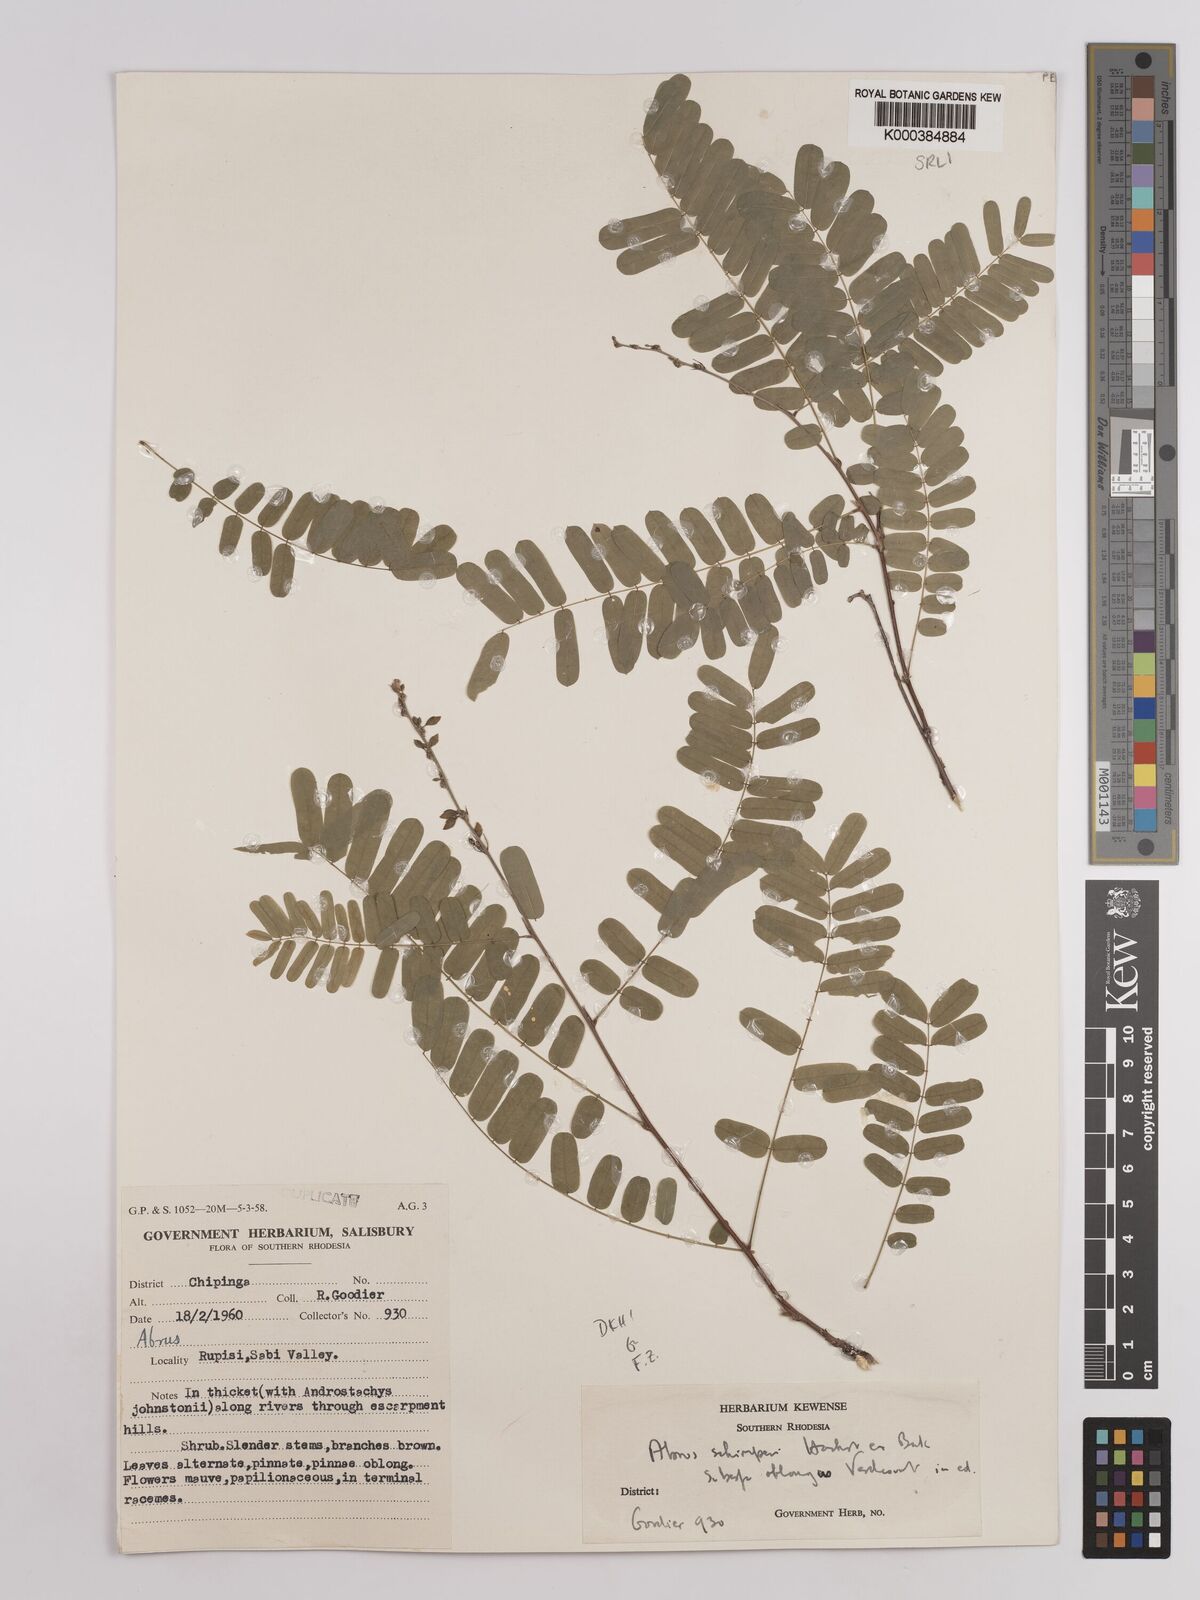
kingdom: Plantae
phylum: Tracheophyta
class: Magnoliopsida
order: Fabales
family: Fabaceae
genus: Abrus
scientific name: Abrus
